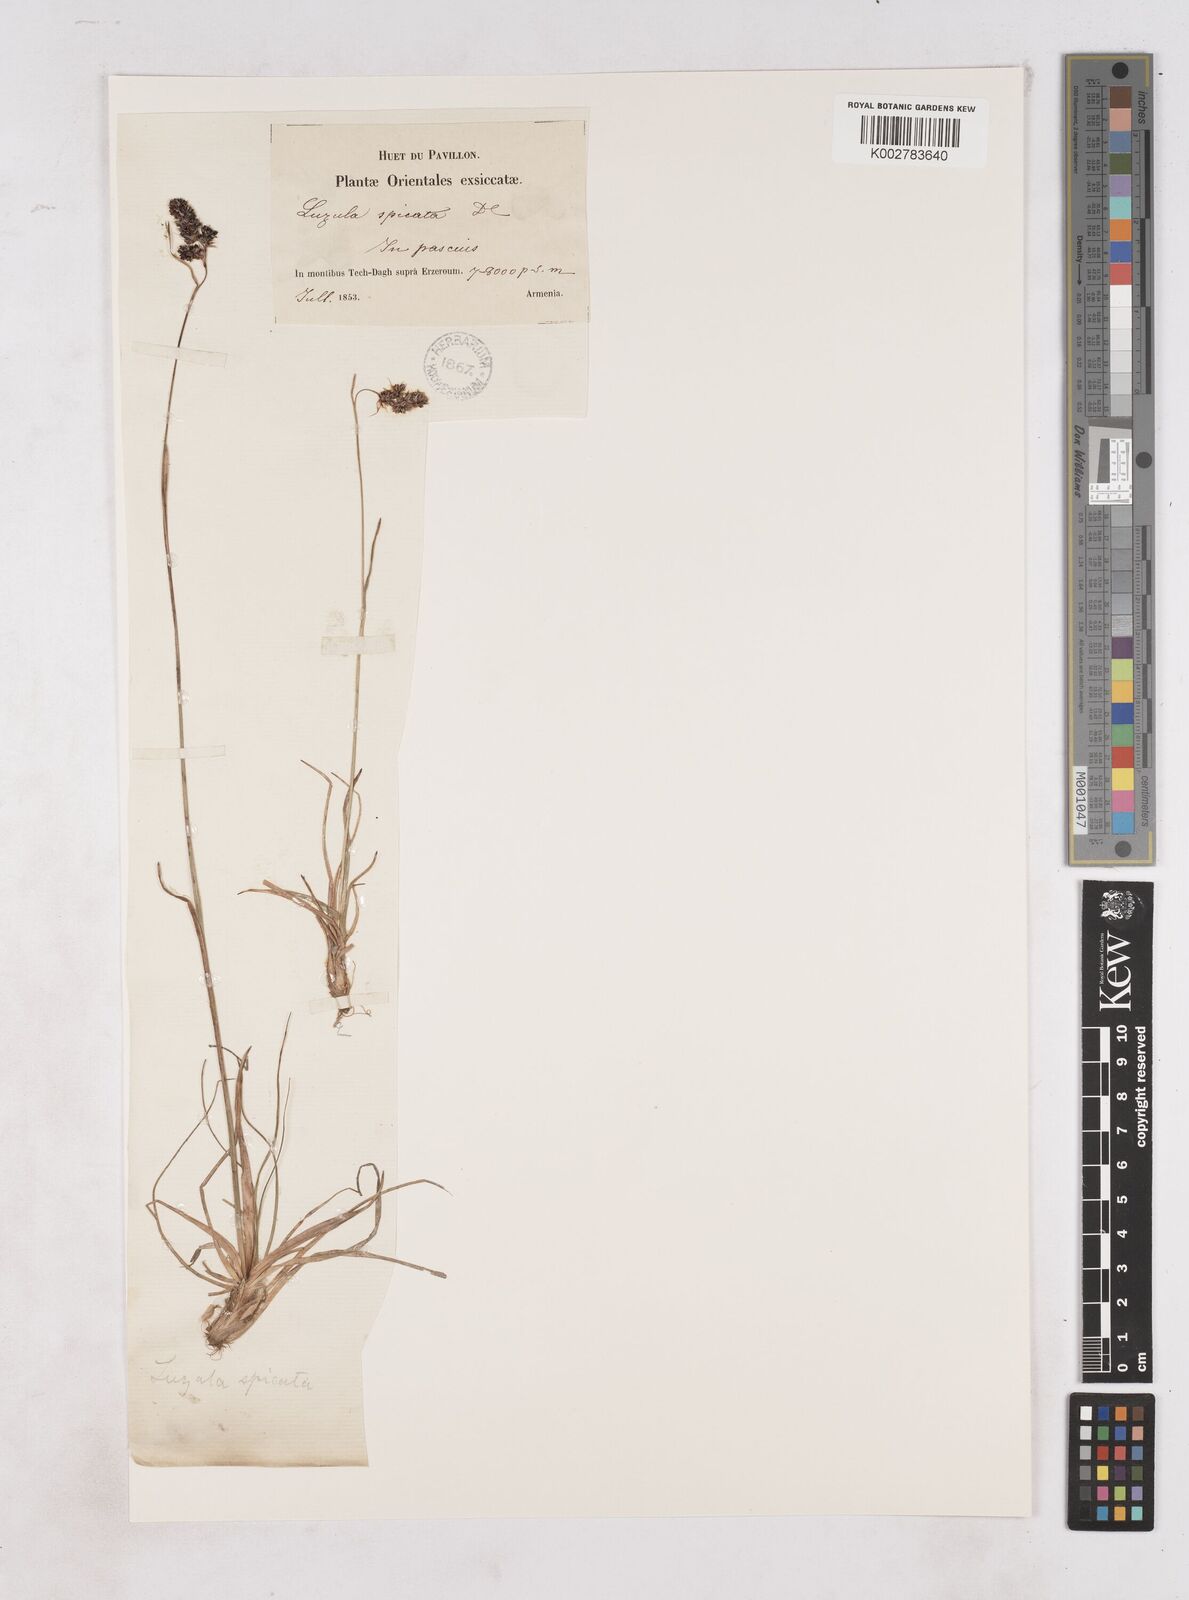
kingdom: Plantae
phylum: Tracheophyta
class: Liliopsida
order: Poales
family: Juncaceae
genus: Luzula
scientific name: Luzula spicata
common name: Spiked wood-rush
